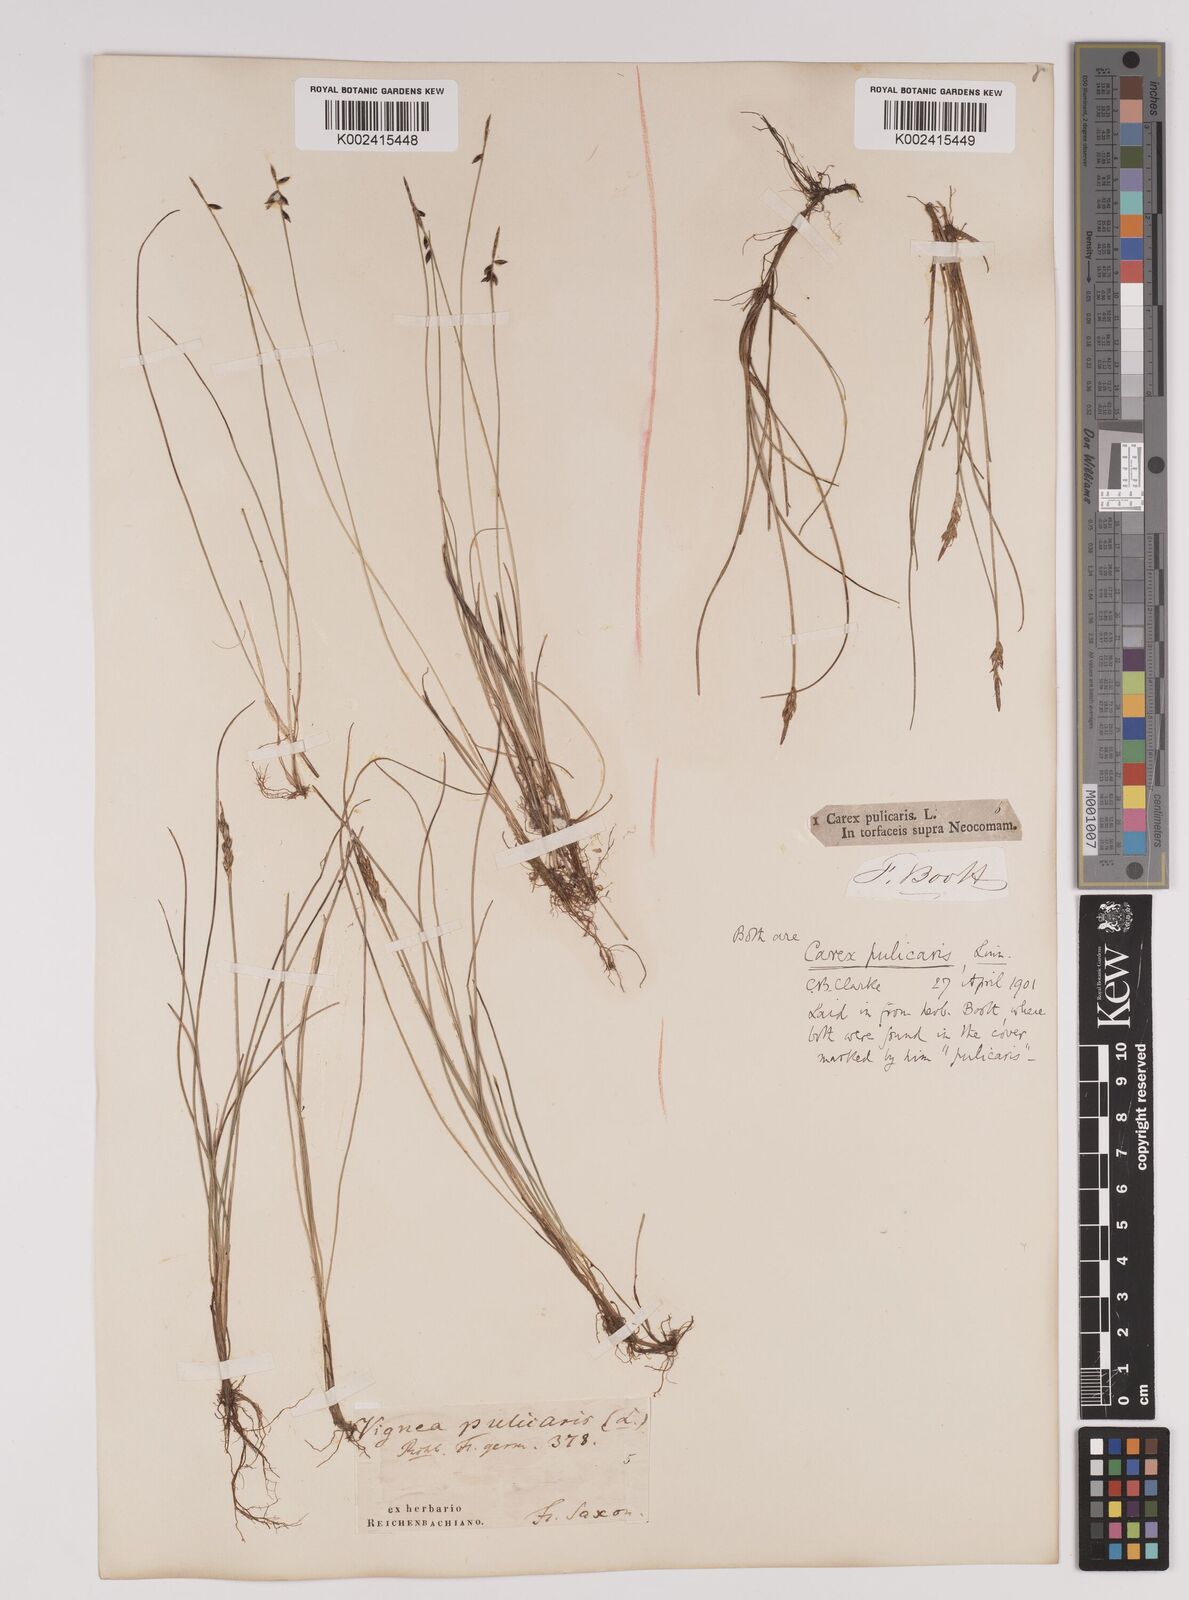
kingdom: Plantae
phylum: Tracheophyta
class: Liliopsida
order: Poales
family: Cyperaceae
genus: Carex
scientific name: Carex pulicaris
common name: Flea sedge
